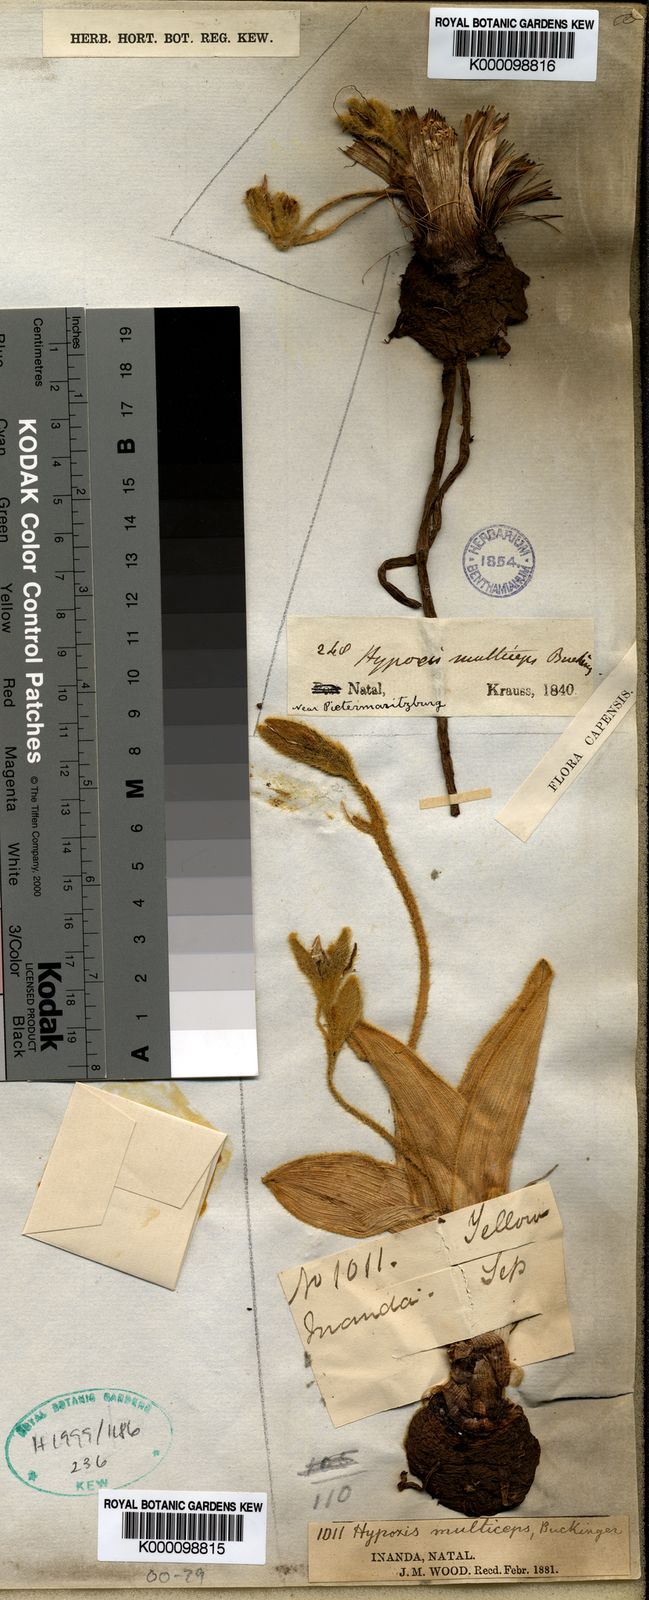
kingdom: Plantae
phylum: Tracheophyta
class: Liliopsida
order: Asparagales
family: Hypoxidaceae
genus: Hypoxis
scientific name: Hypoxis
